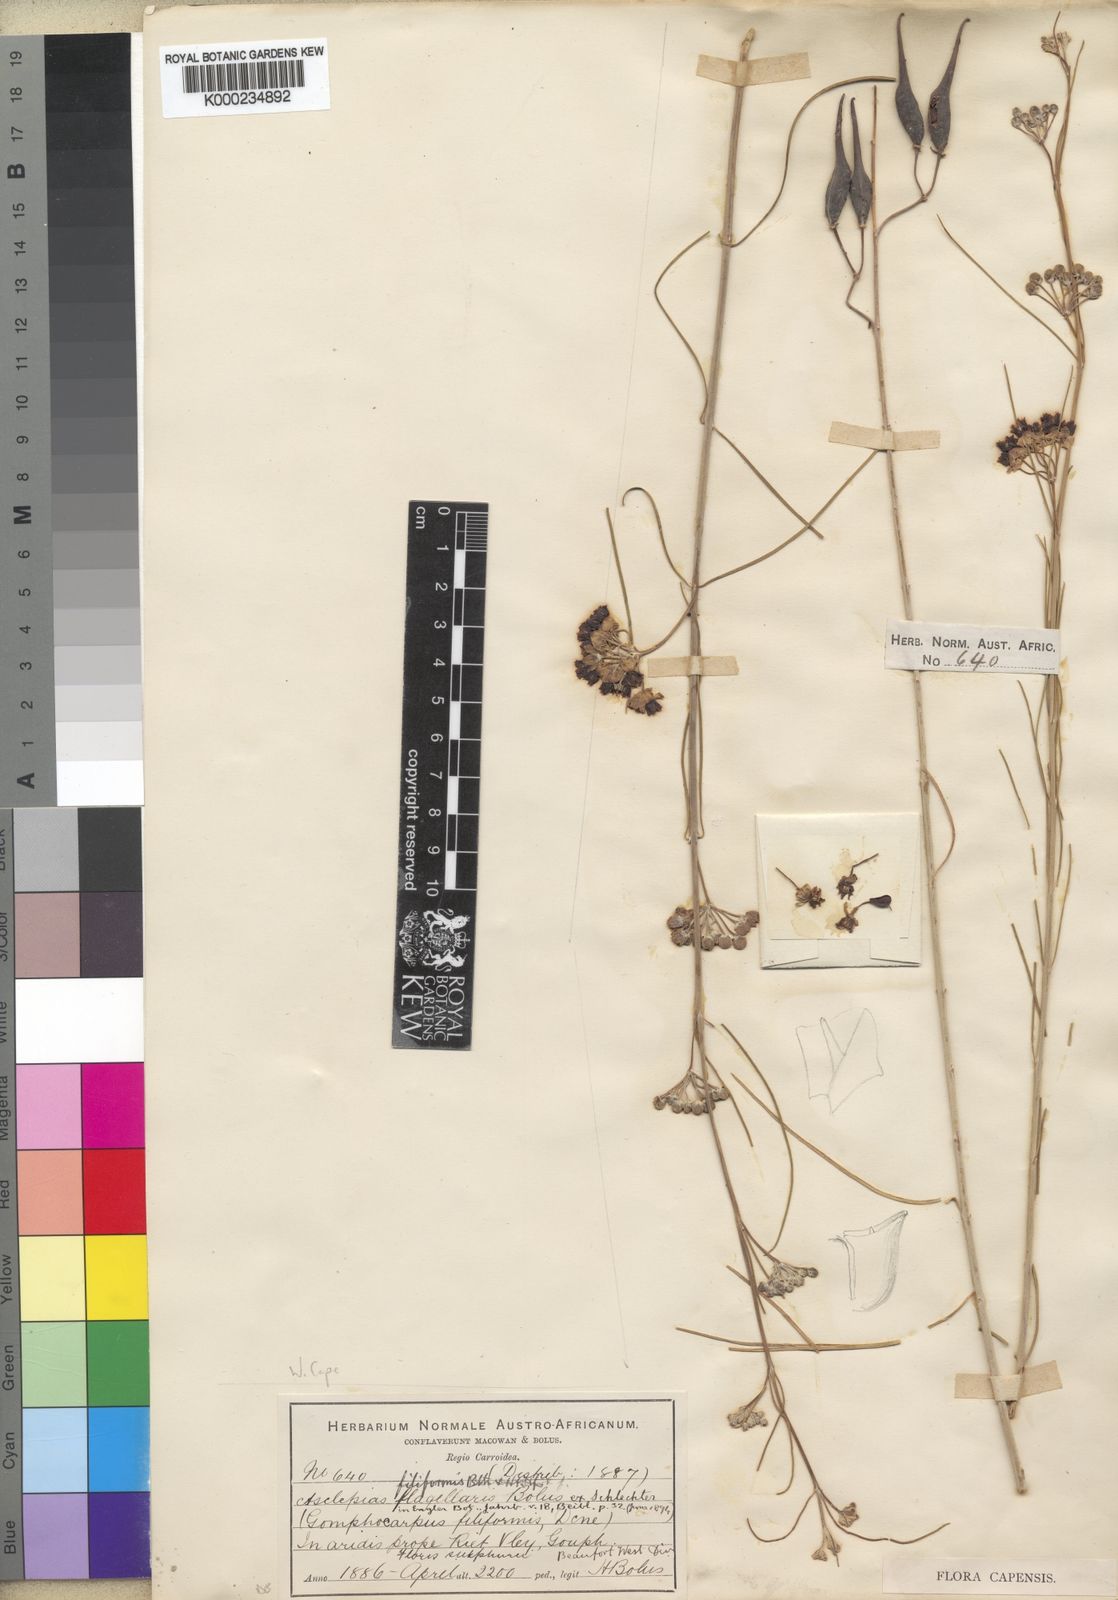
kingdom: Plantae
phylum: Tracheophyta
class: Magnoliopsida
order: Gentianales
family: Apocynaceae
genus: Gomphocarpus
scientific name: Gomphocarpus filiformis
